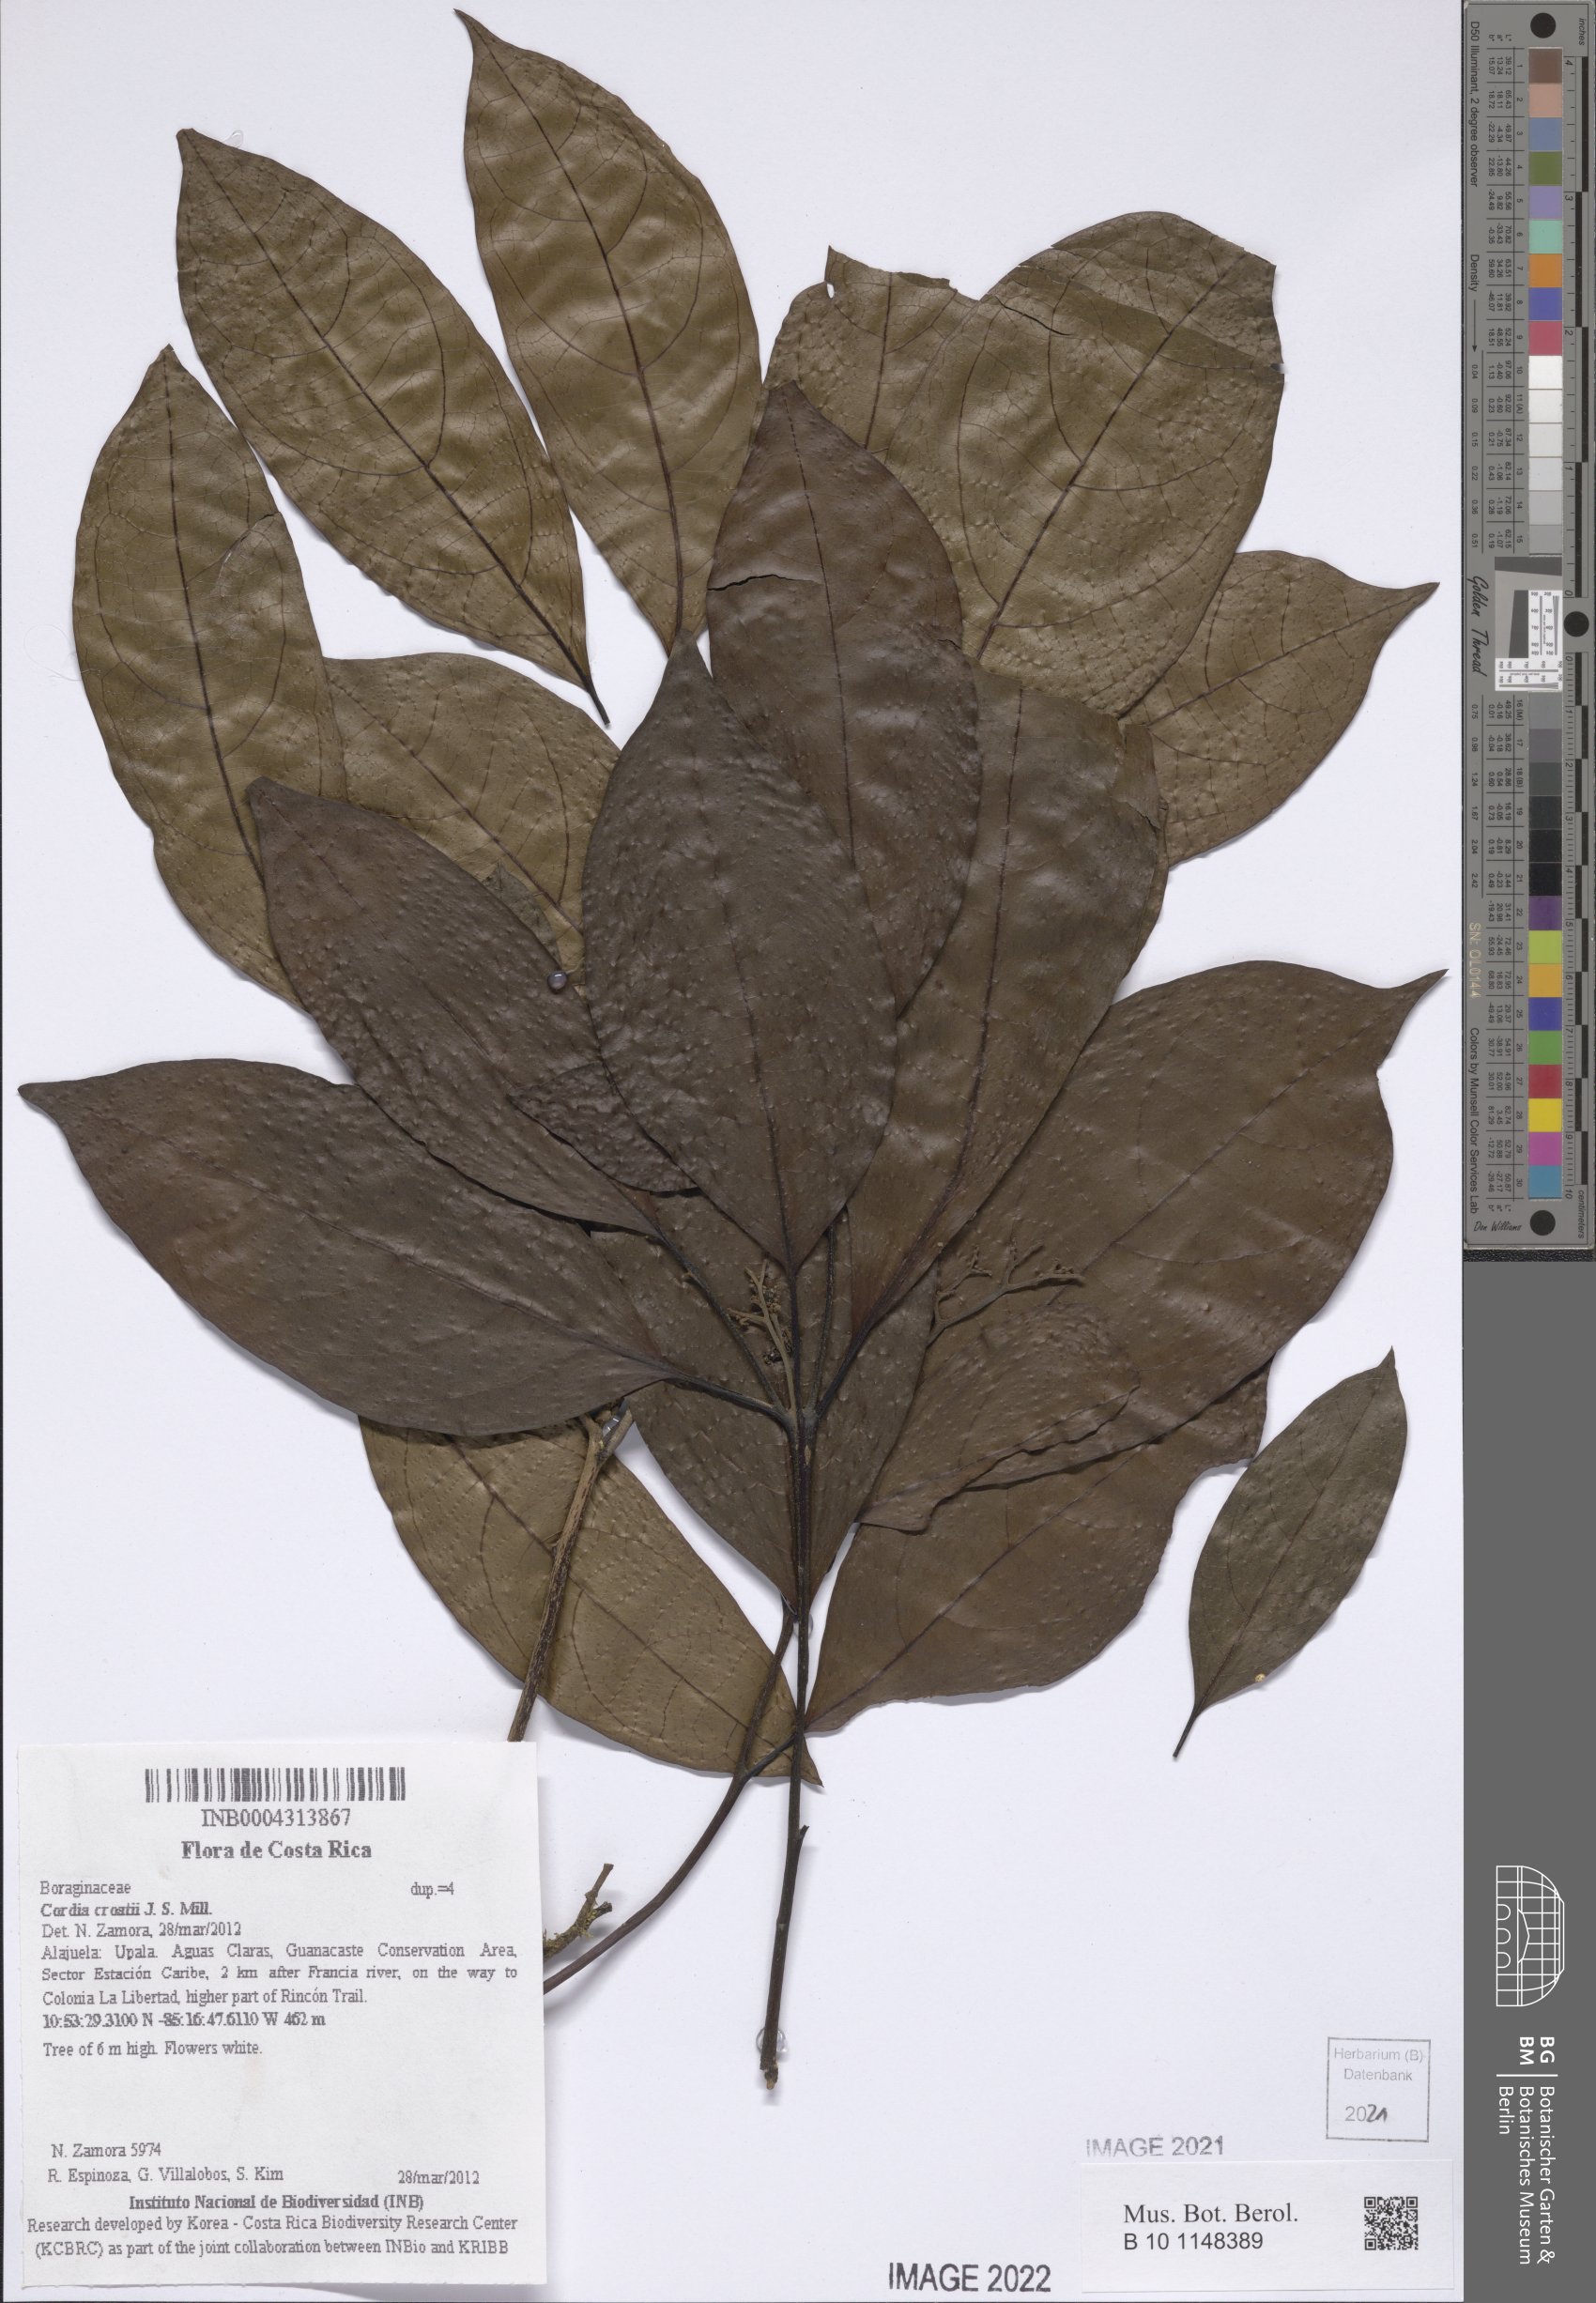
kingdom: Plantae
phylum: Tracheophyta
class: Magnoliopsida
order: Boraginales
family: Cordiaceae
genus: Cordia
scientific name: Cordia porcata
